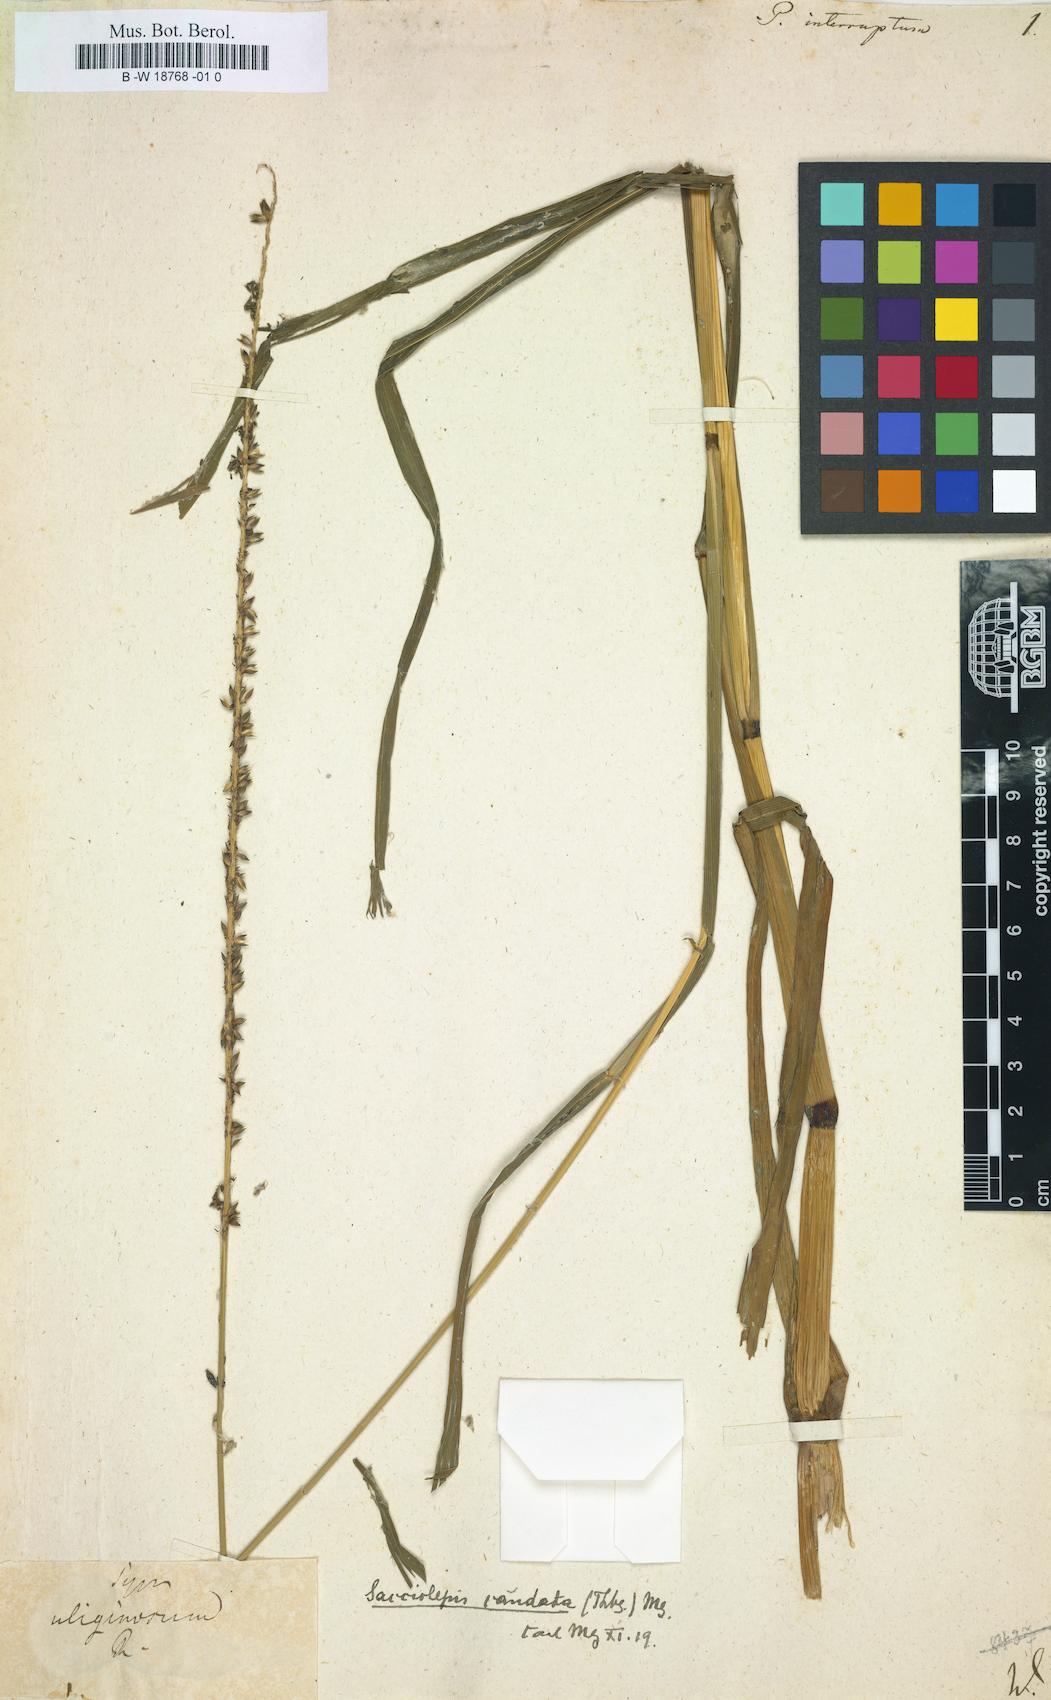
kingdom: Plantae
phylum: Tracheophyta
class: Liliopsida
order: Poales
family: Poaceae
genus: Panicum
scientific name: Panicum interruptum
